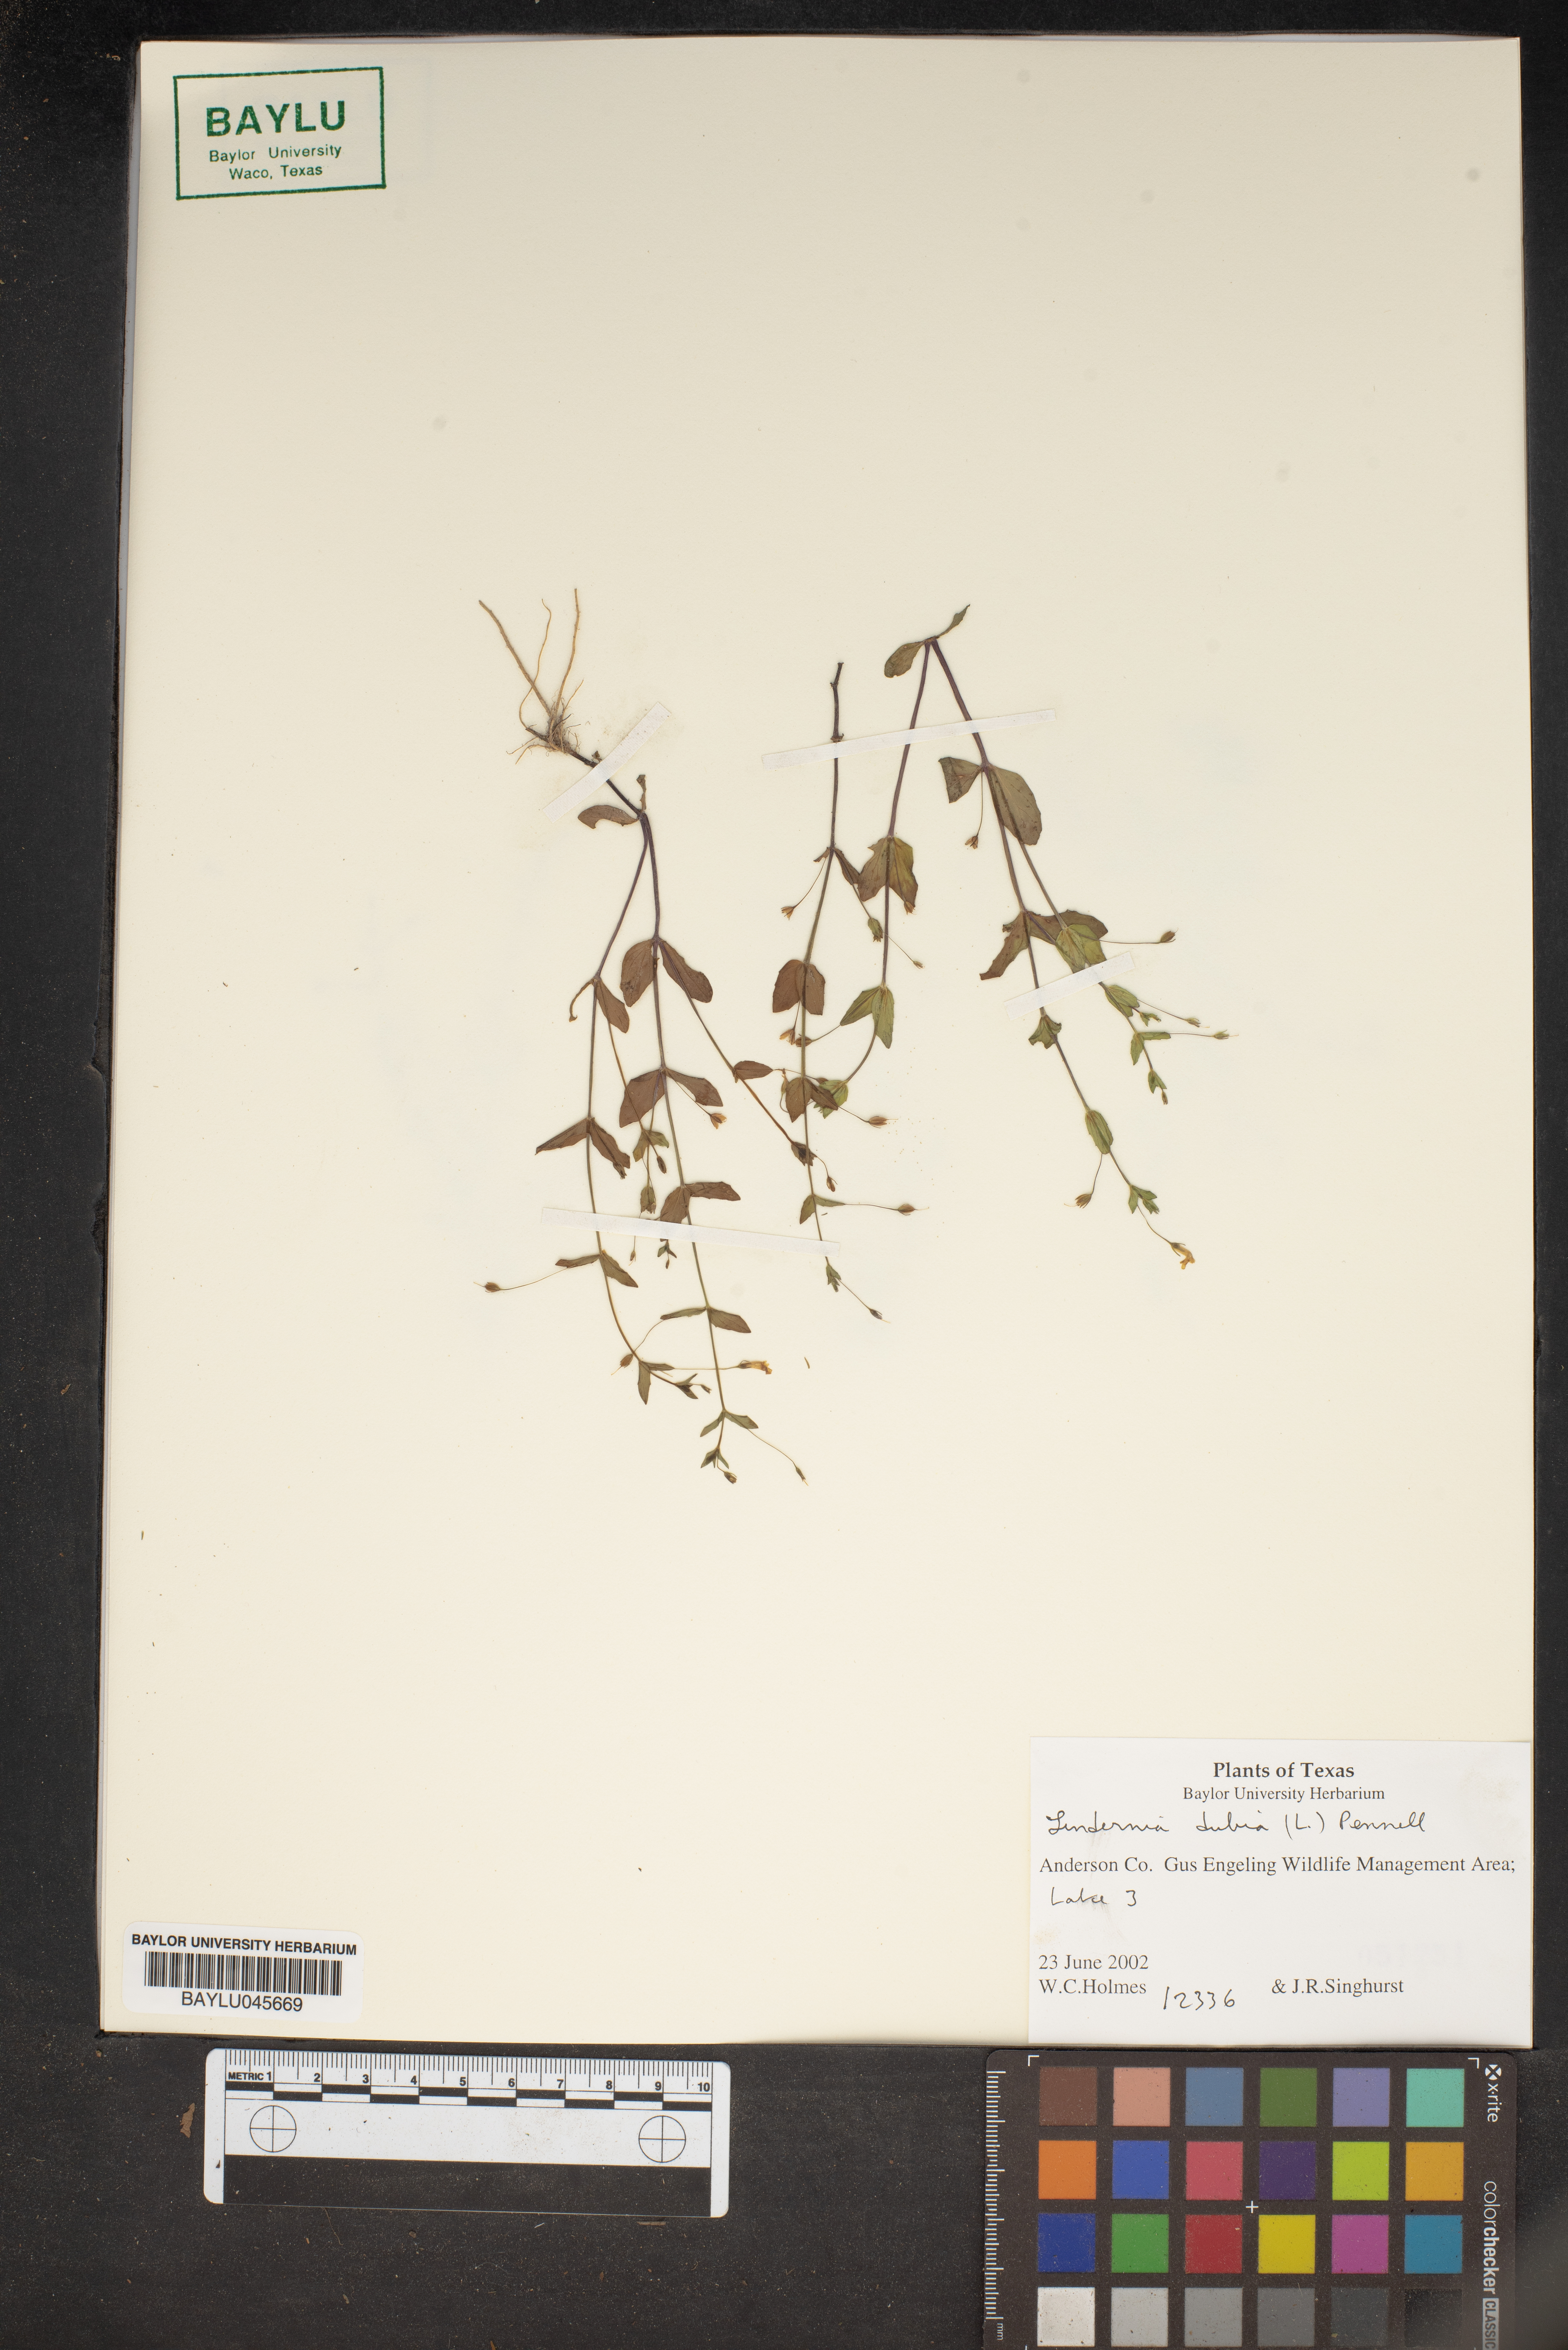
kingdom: Plantae
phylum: Tracheophyta
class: Magnoliopsida
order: Lamiales
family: Linderniaceae
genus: Lindernia
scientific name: Lindernia dubia
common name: Annual false pimpernel
